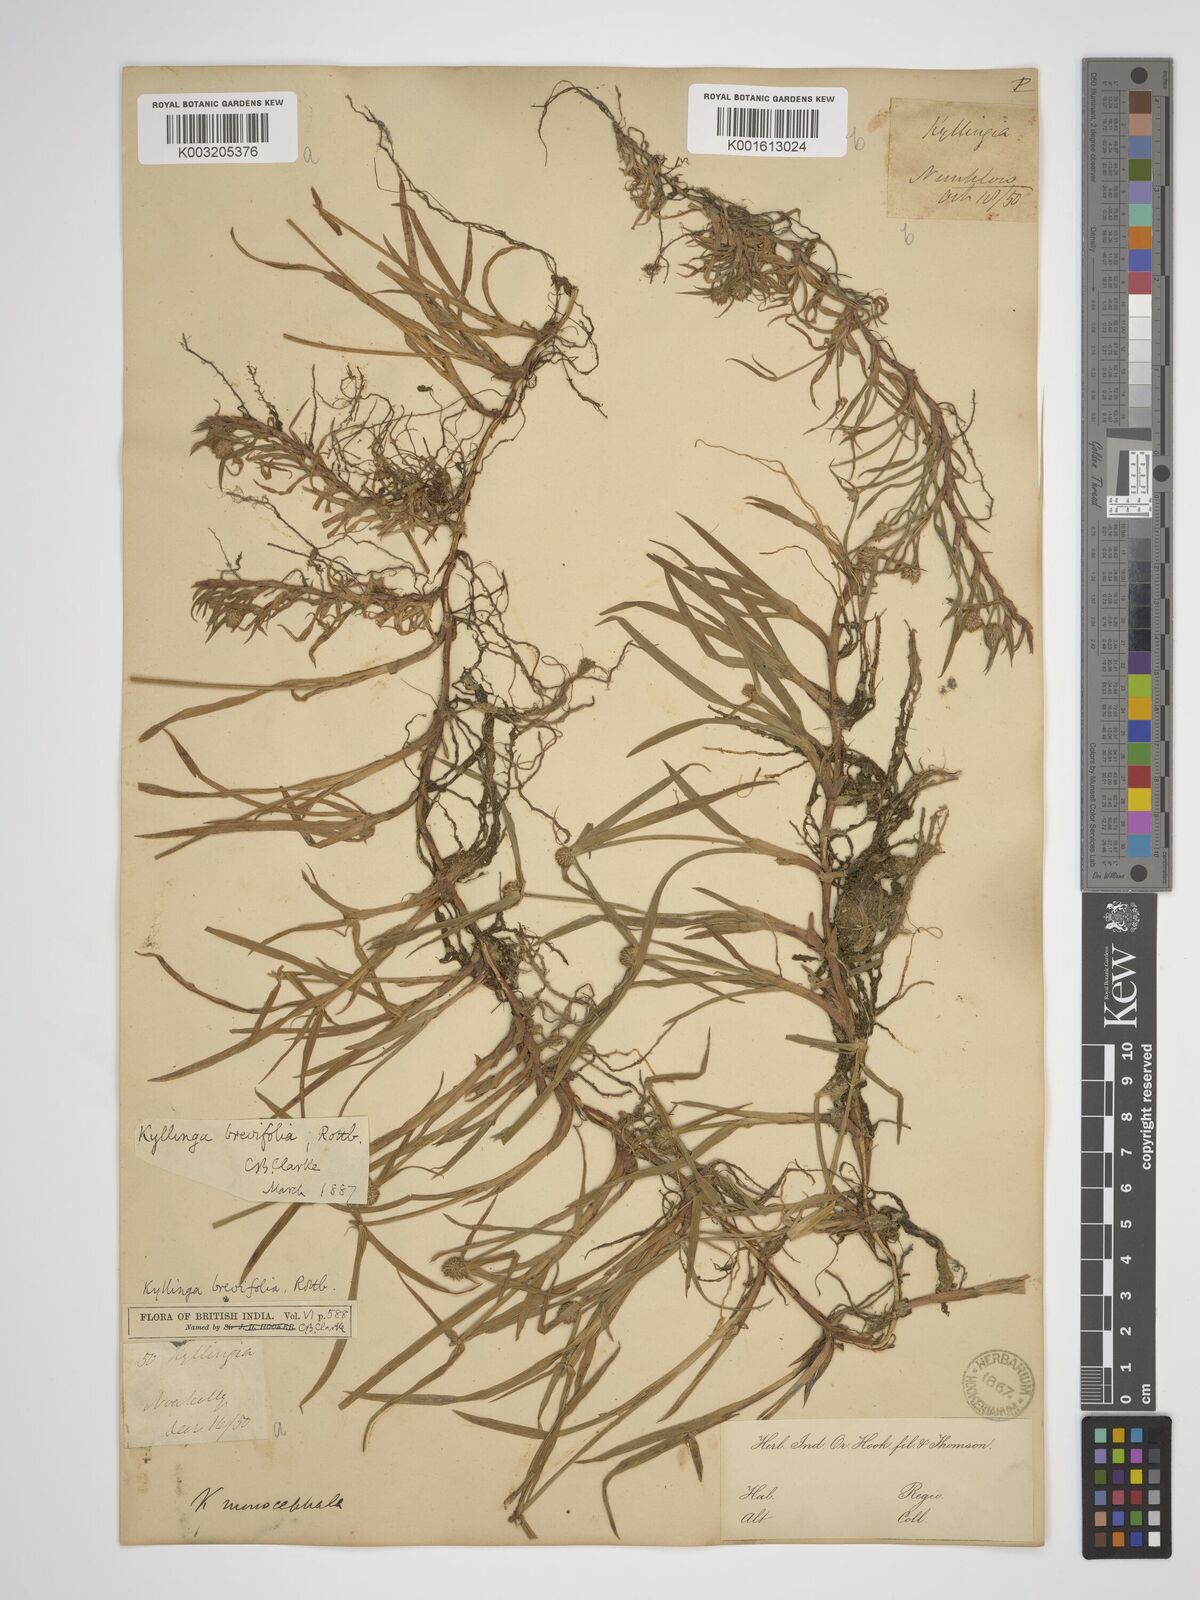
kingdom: Plantae
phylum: Tracheophyta
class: Liliopsida
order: Poales
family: Cyperaceae
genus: Cyperus
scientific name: Cyperus
